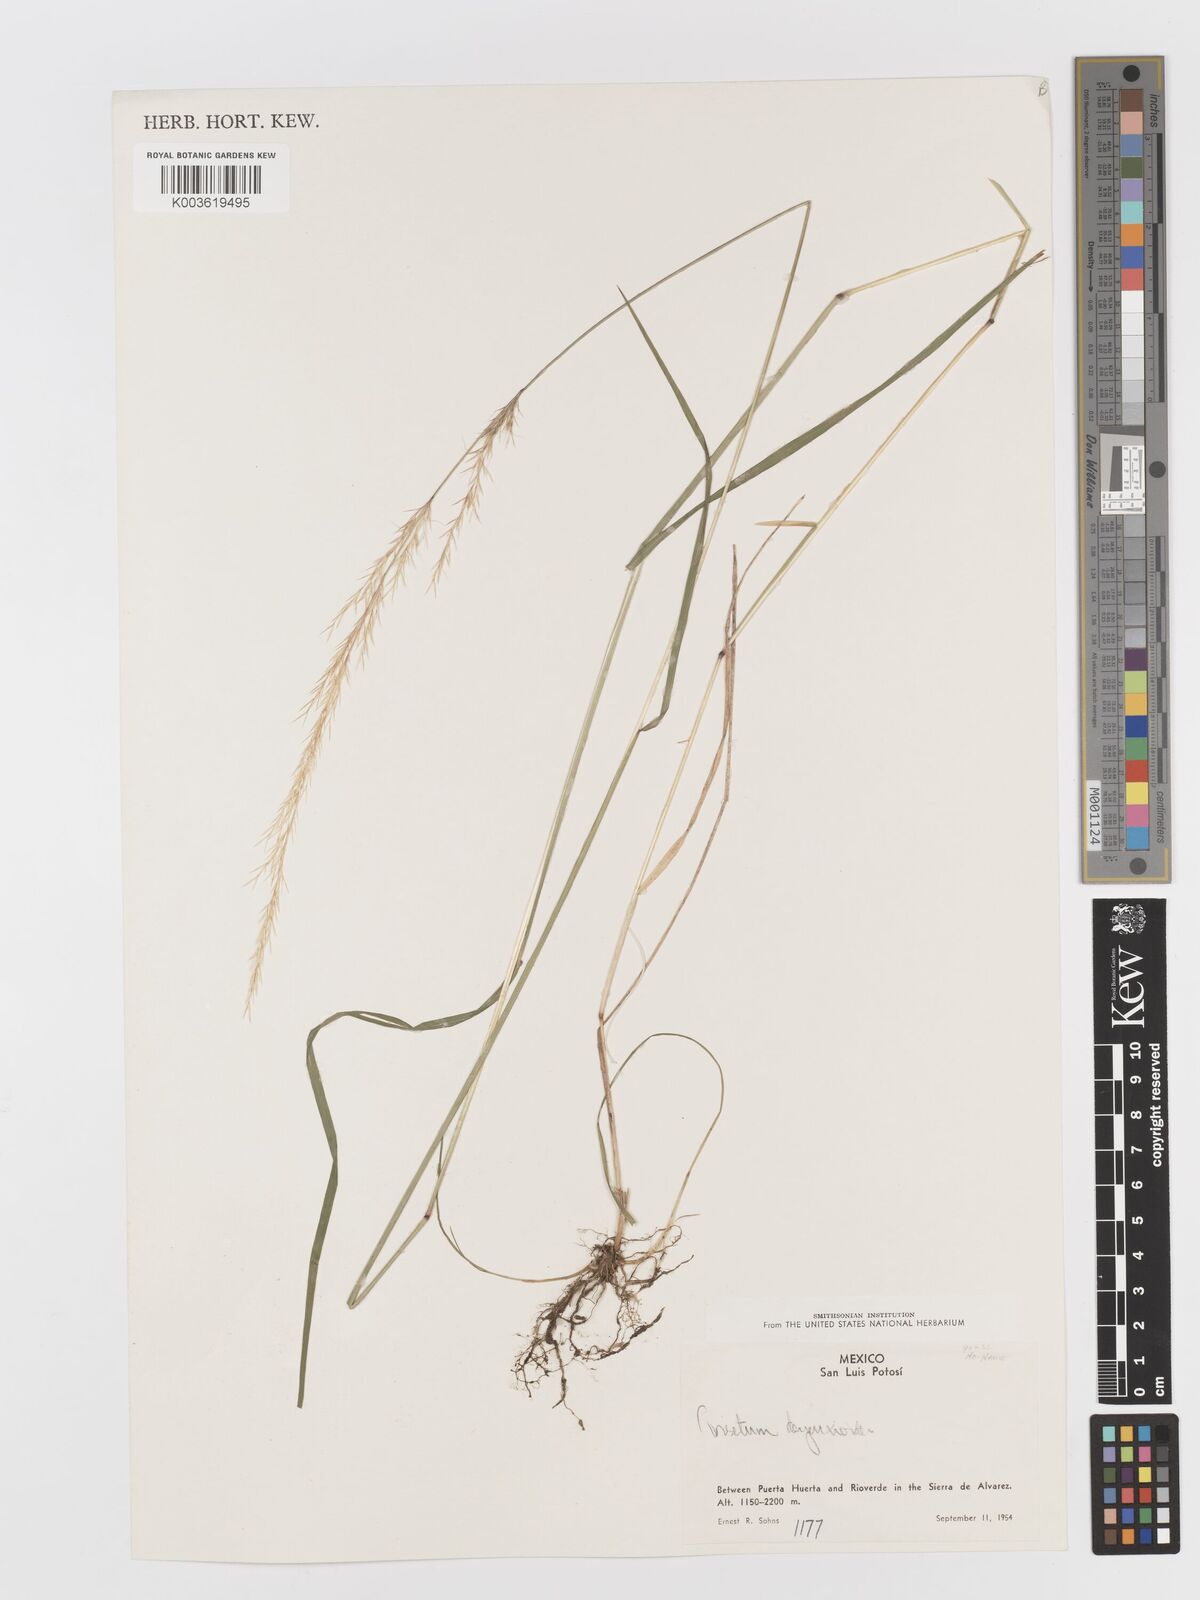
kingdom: Plantae
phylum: Tracheophyta
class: Liliopsida
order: Poales
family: Poaceae
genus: Peyritschia
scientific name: Peyritschia deyeuxioides
